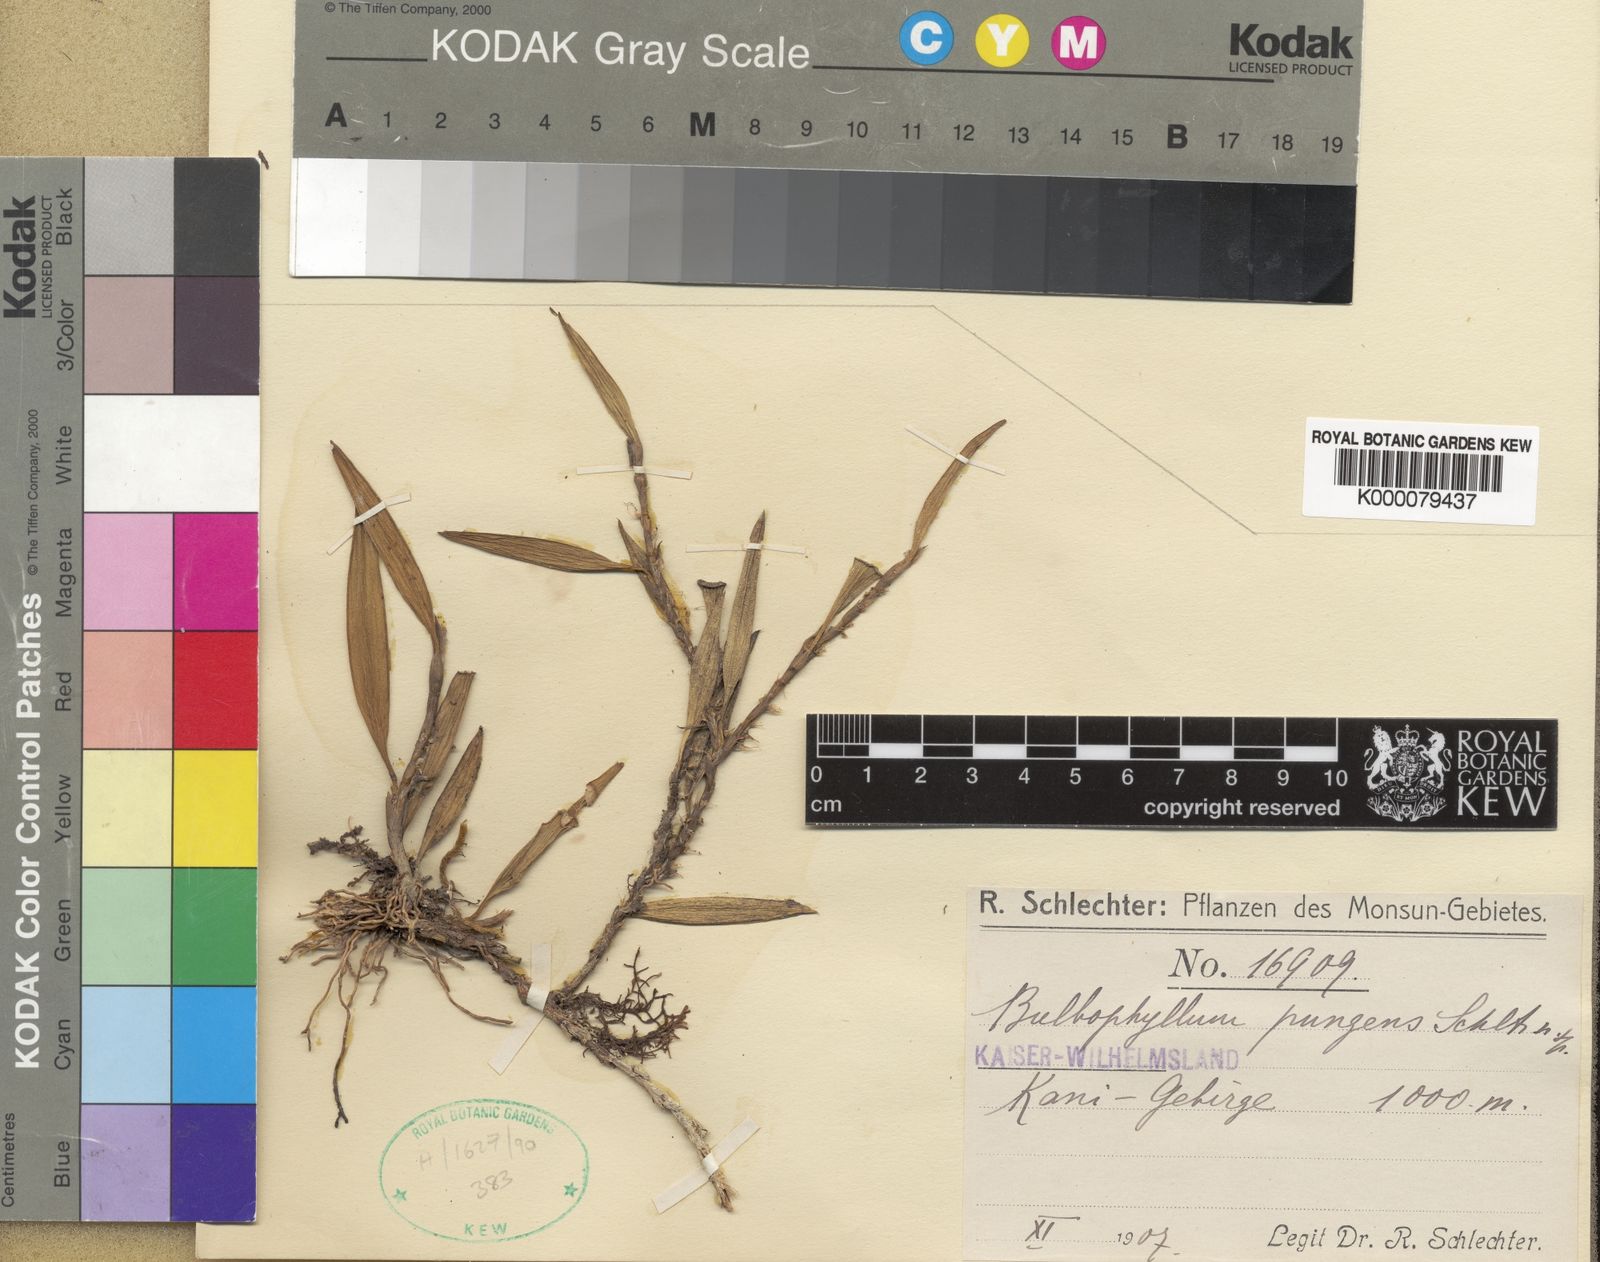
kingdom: Plantae
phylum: Tracheophyta
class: Liliopsida
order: Asparagales
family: Orchidaceae
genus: Bulbophyllum
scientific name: Bulbophyllum pungens
